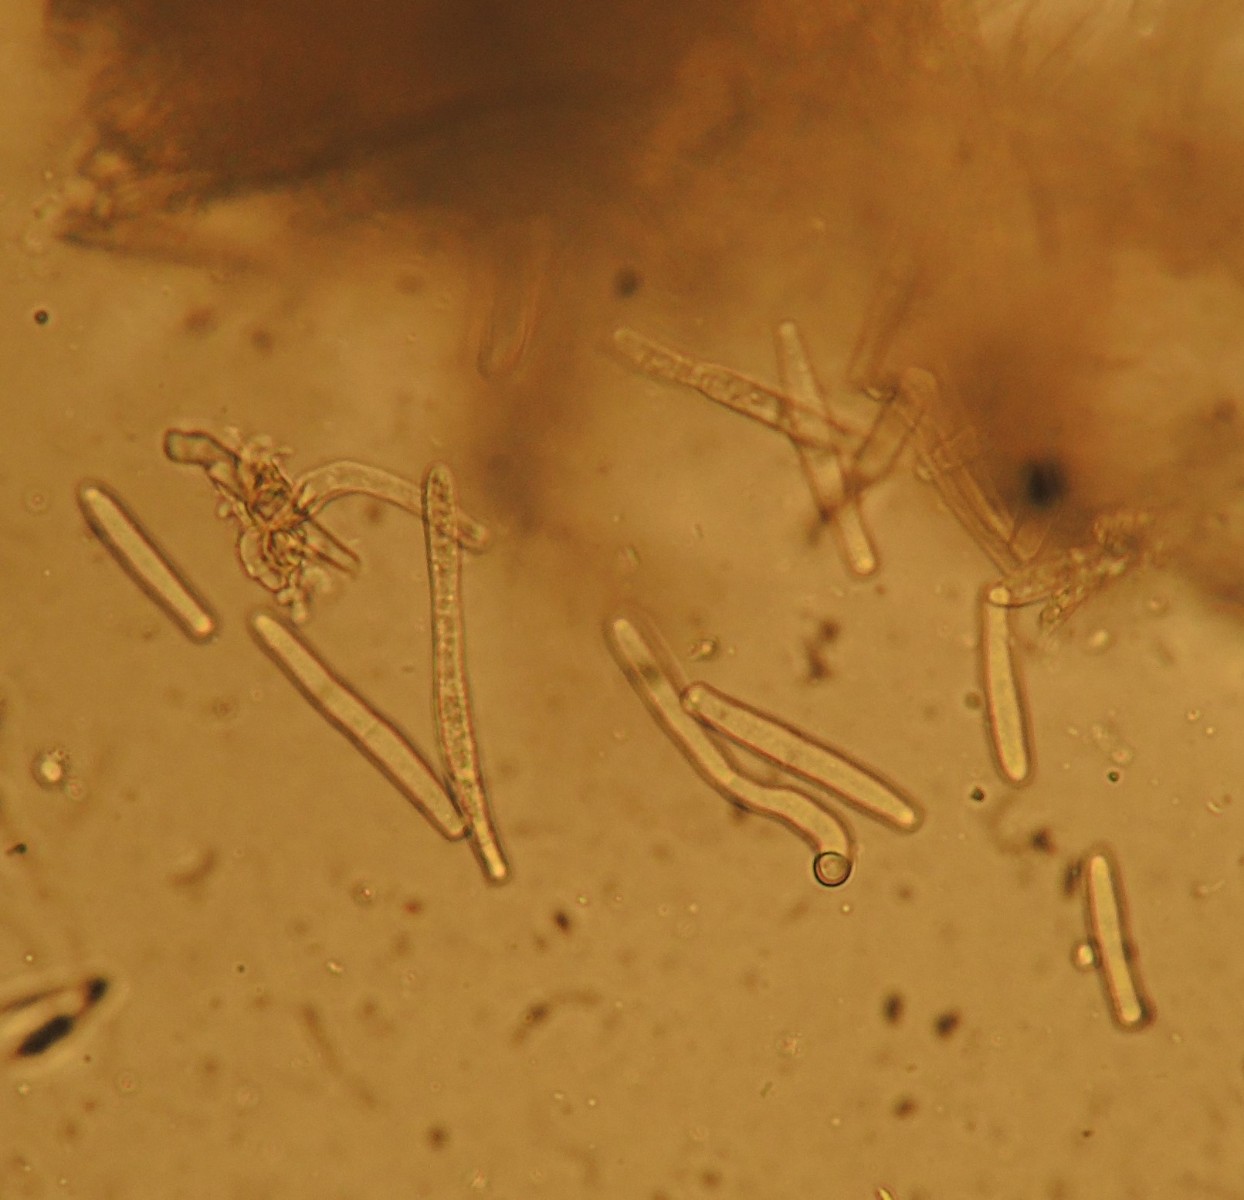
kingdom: Fungi
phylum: Ascomycota
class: Leotiomycetes
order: Helotiales
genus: Thedgonia
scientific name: Thedgonia ligustrina
